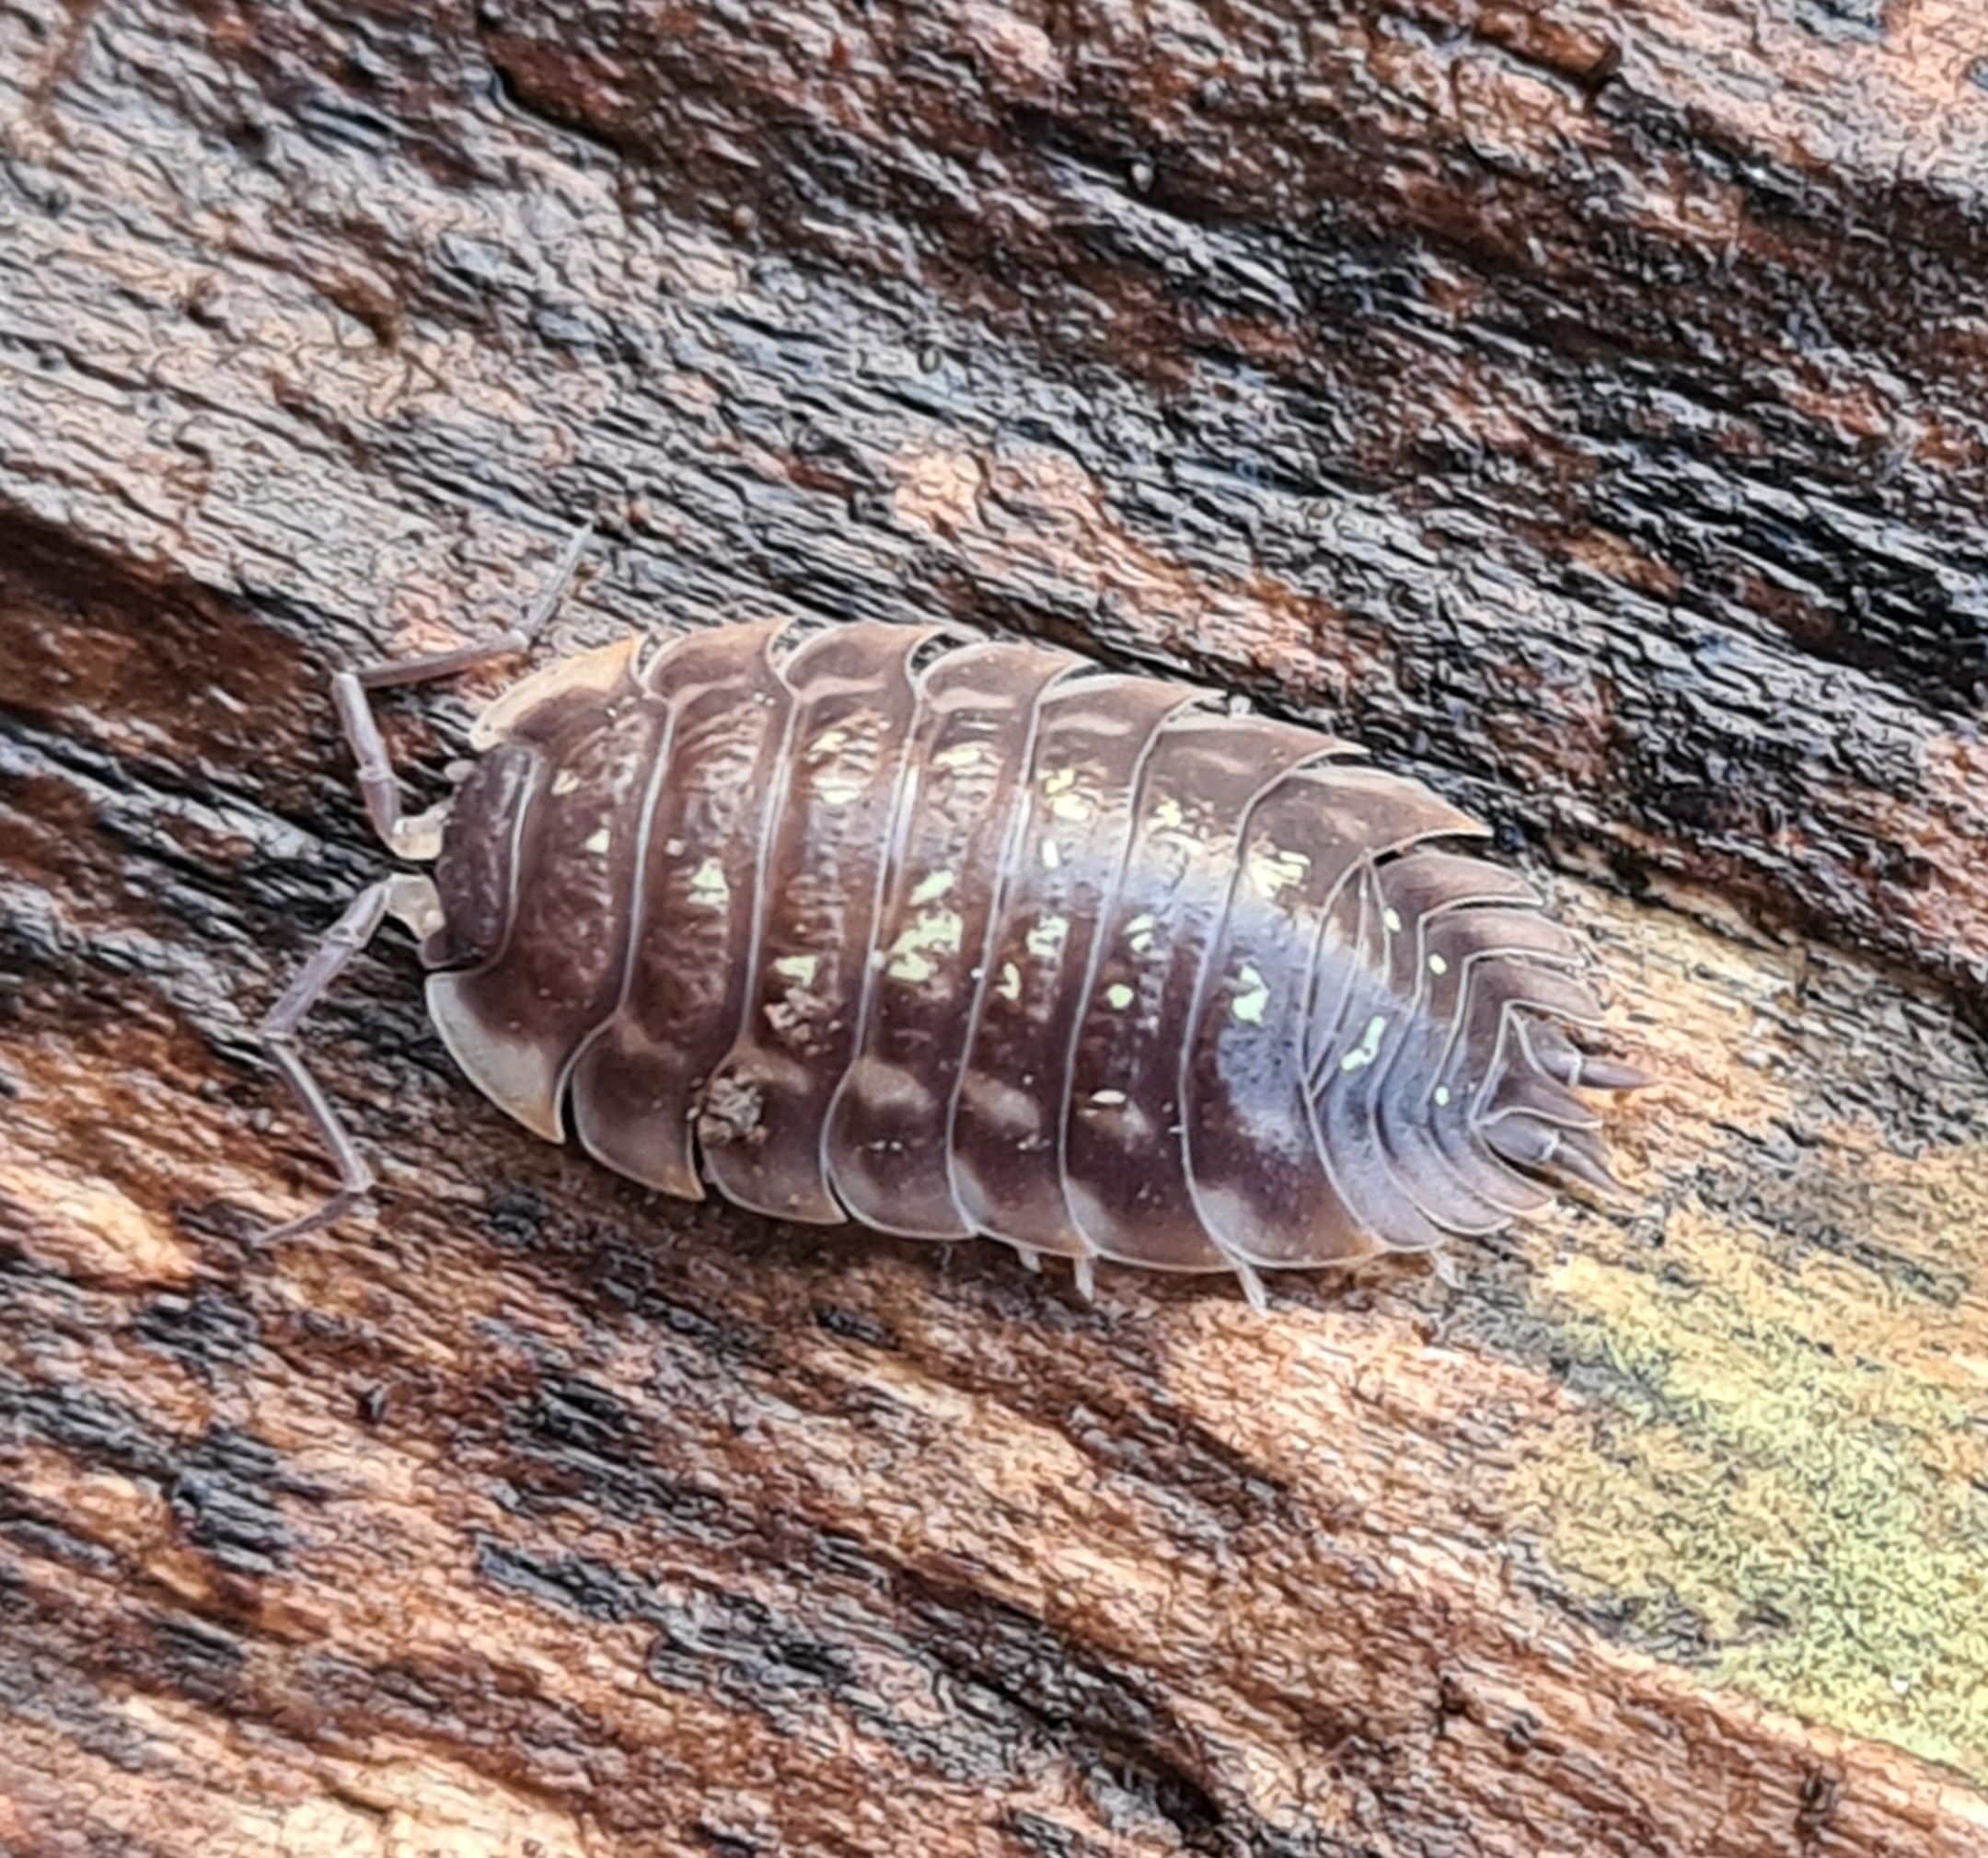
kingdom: Animalia
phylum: Arthropoda
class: Malacostraca
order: Isopoda
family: Oniscidae
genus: Oniscus
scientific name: Oniscus asellus
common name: Glat bænkebider
